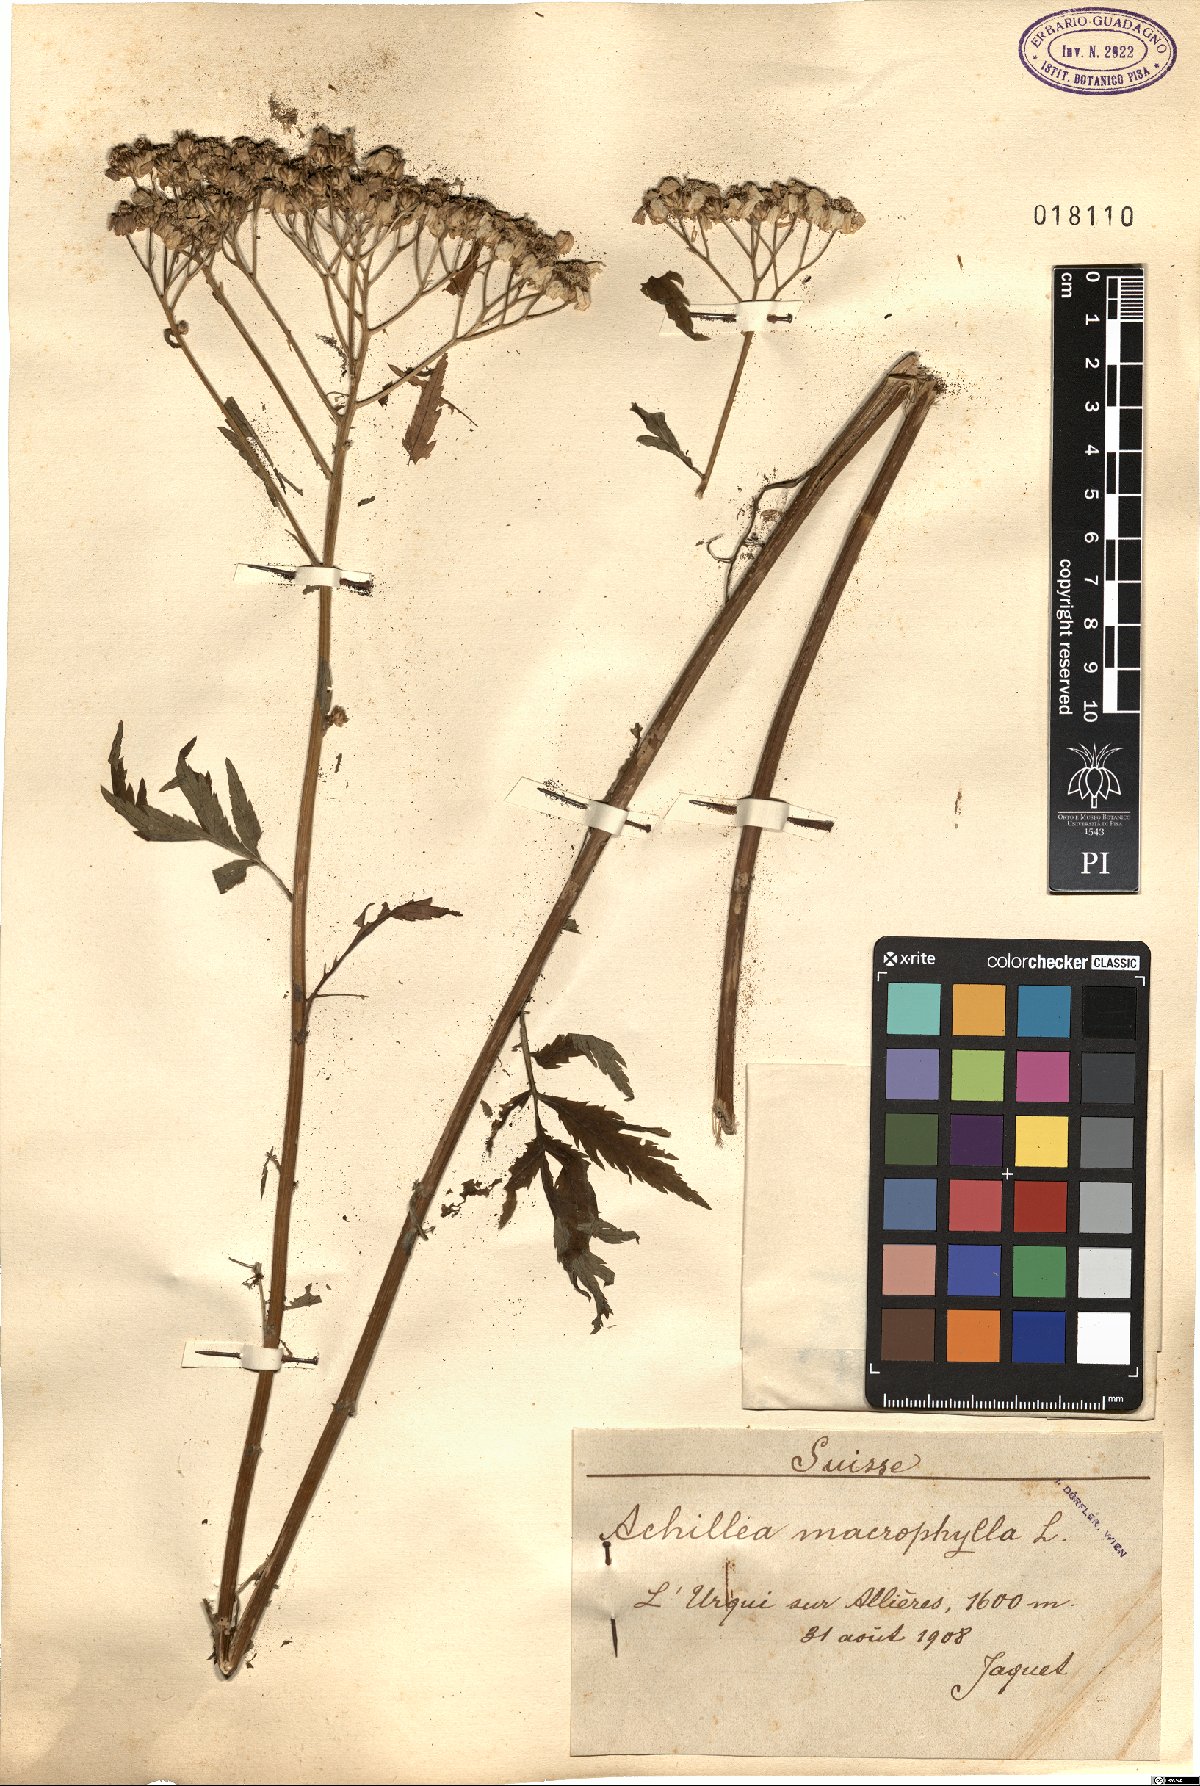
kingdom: Plantae
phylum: Tracheophyta
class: Magnoliopsida
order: Asterales
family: Asteraceae
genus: Achillea
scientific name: Achillea macrophylla
